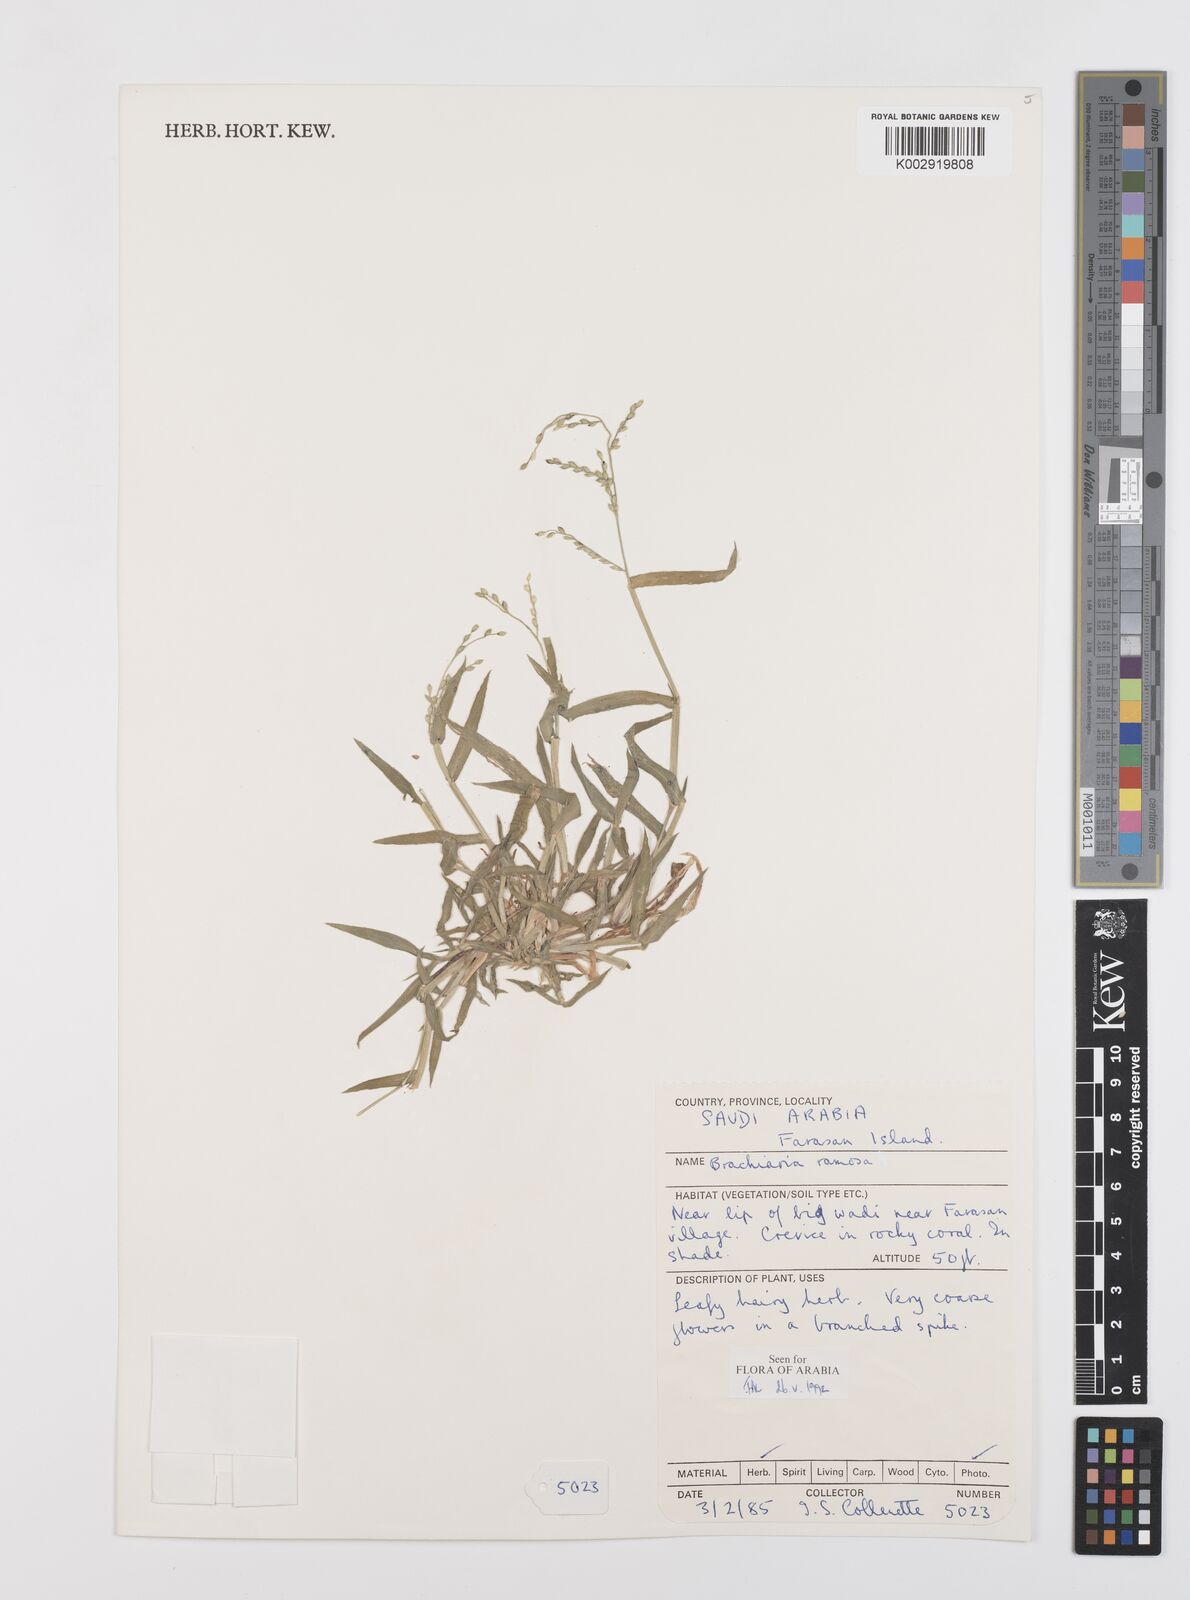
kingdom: Plantae
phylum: Tracheophyta
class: Liliopsida
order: Poales
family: Poaceae
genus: Urochloa
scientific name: Urochloa ramosa
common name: Browntop millet
